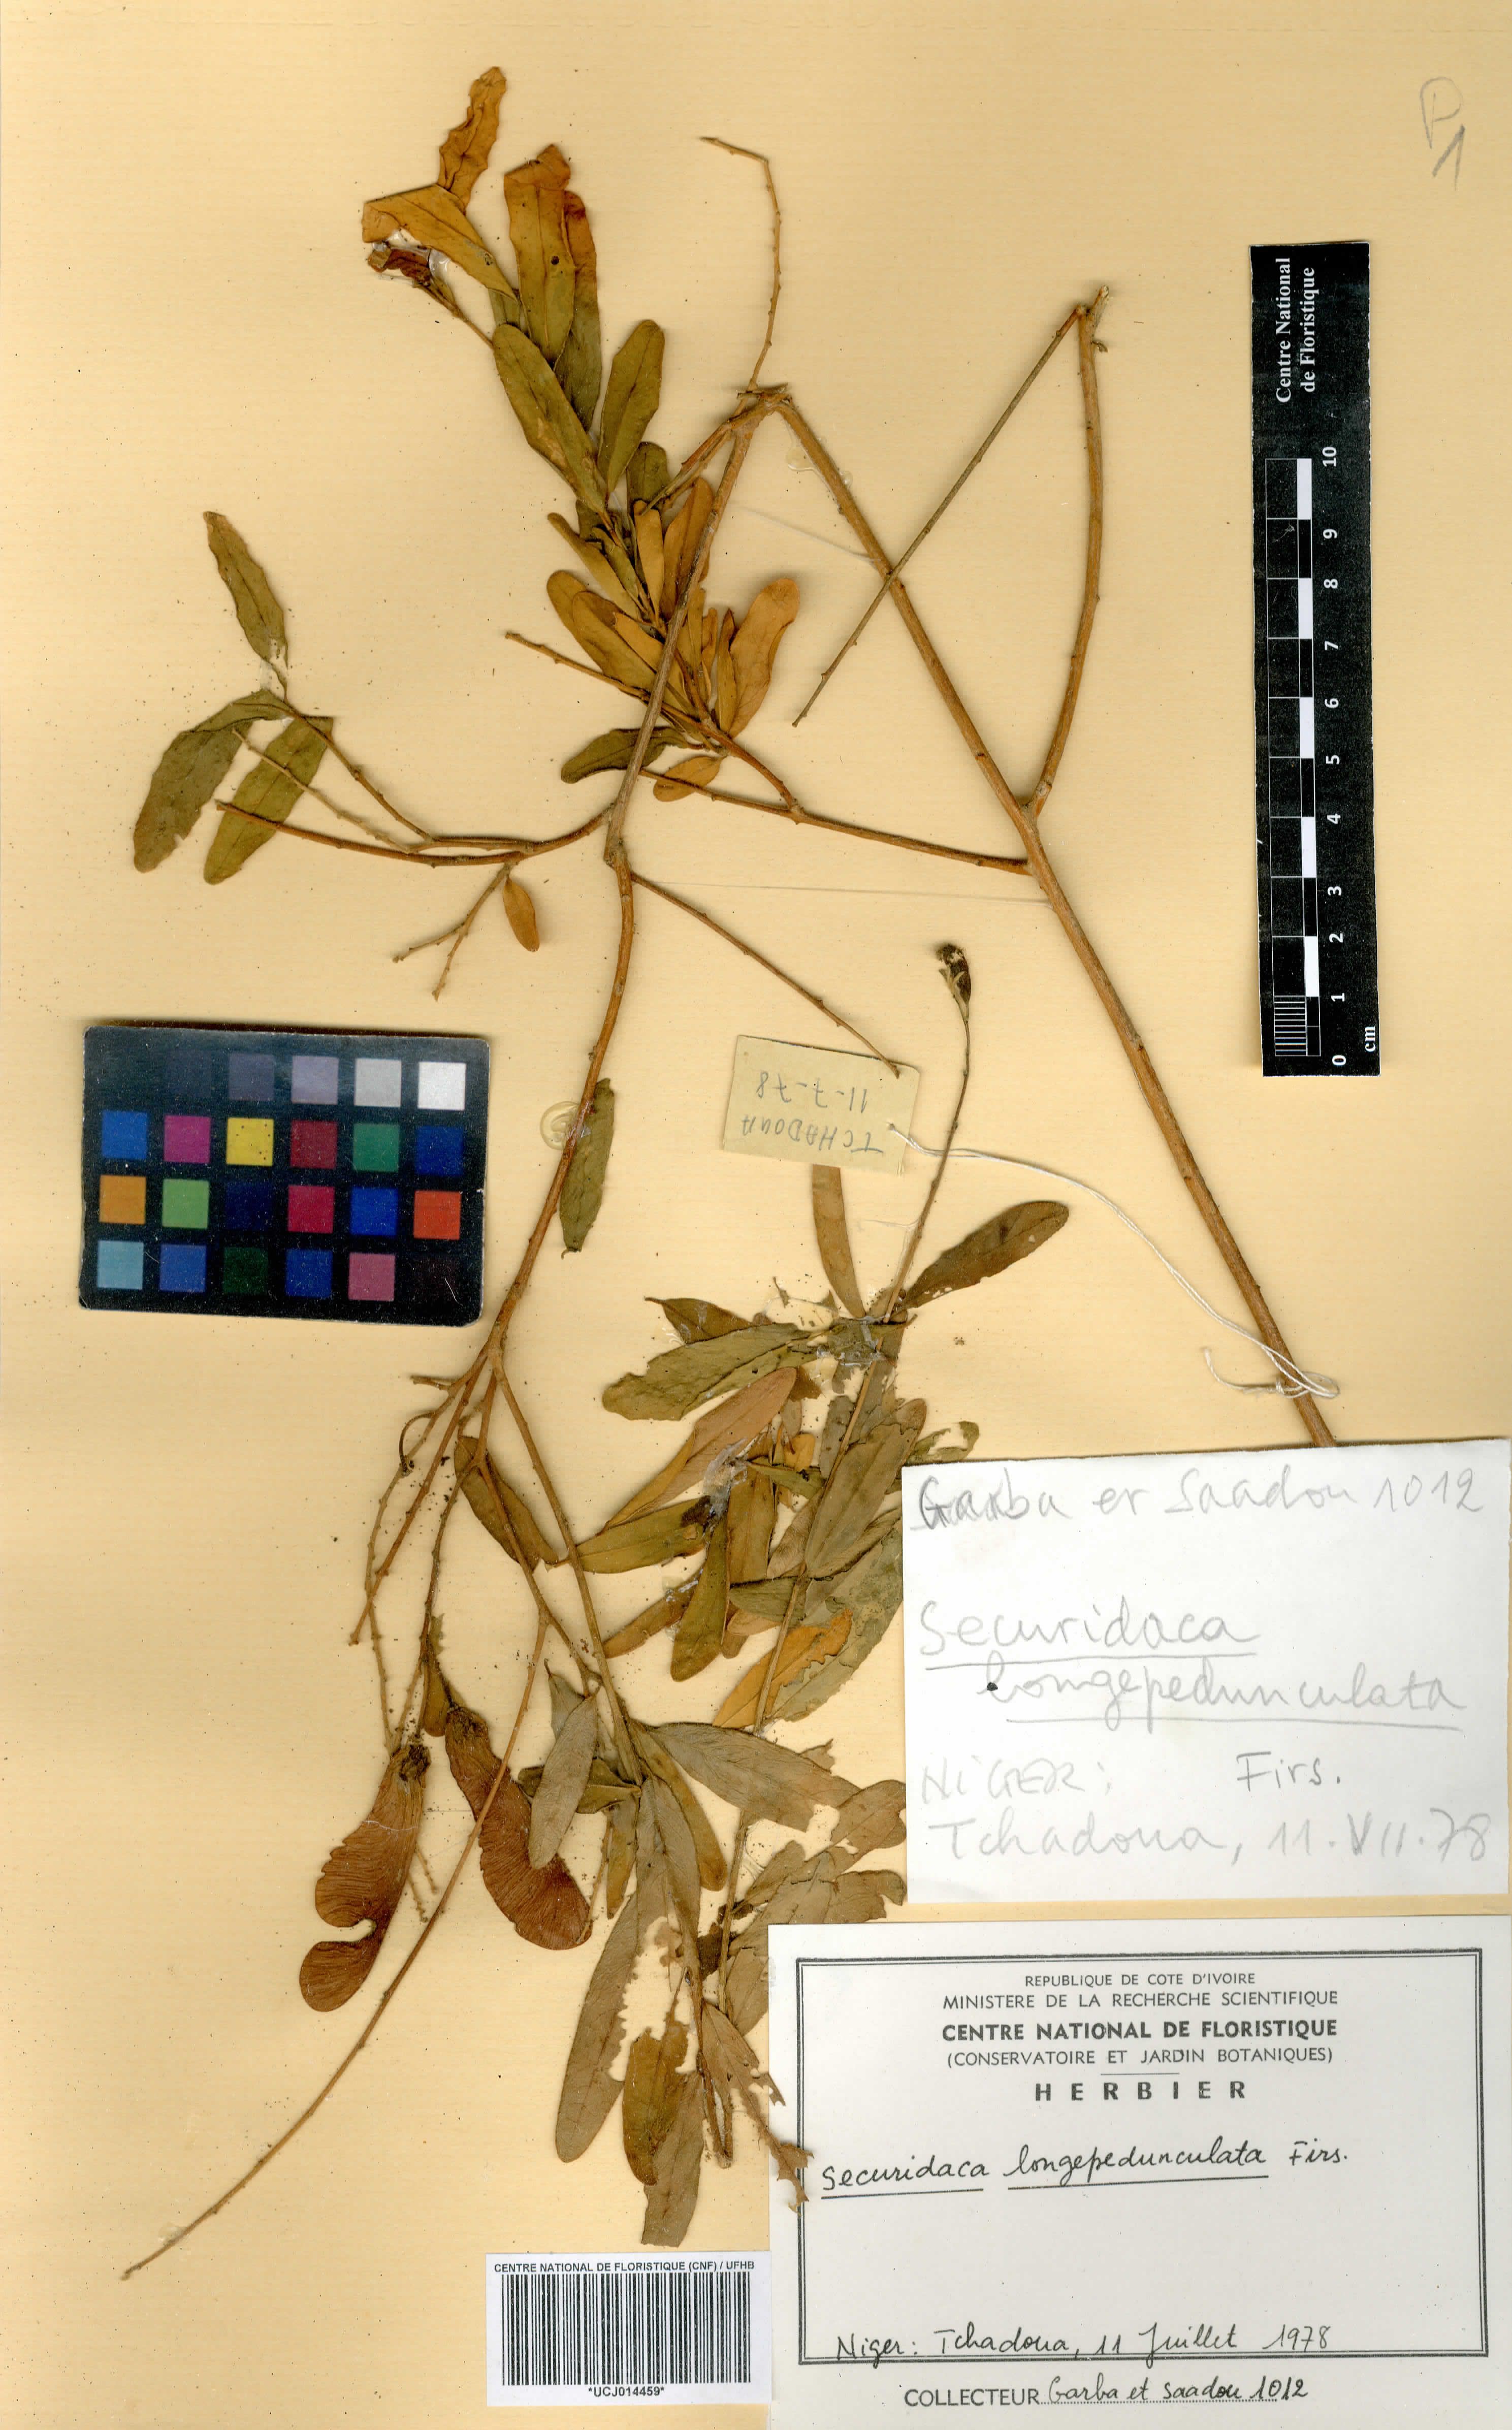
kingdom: Plantae
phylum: Tracheophyta
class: Magnoliopsida
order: Fabales
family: Polygalaceae
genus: Securidaca
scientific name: Securidaca longepedunculata
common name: Violet tree
